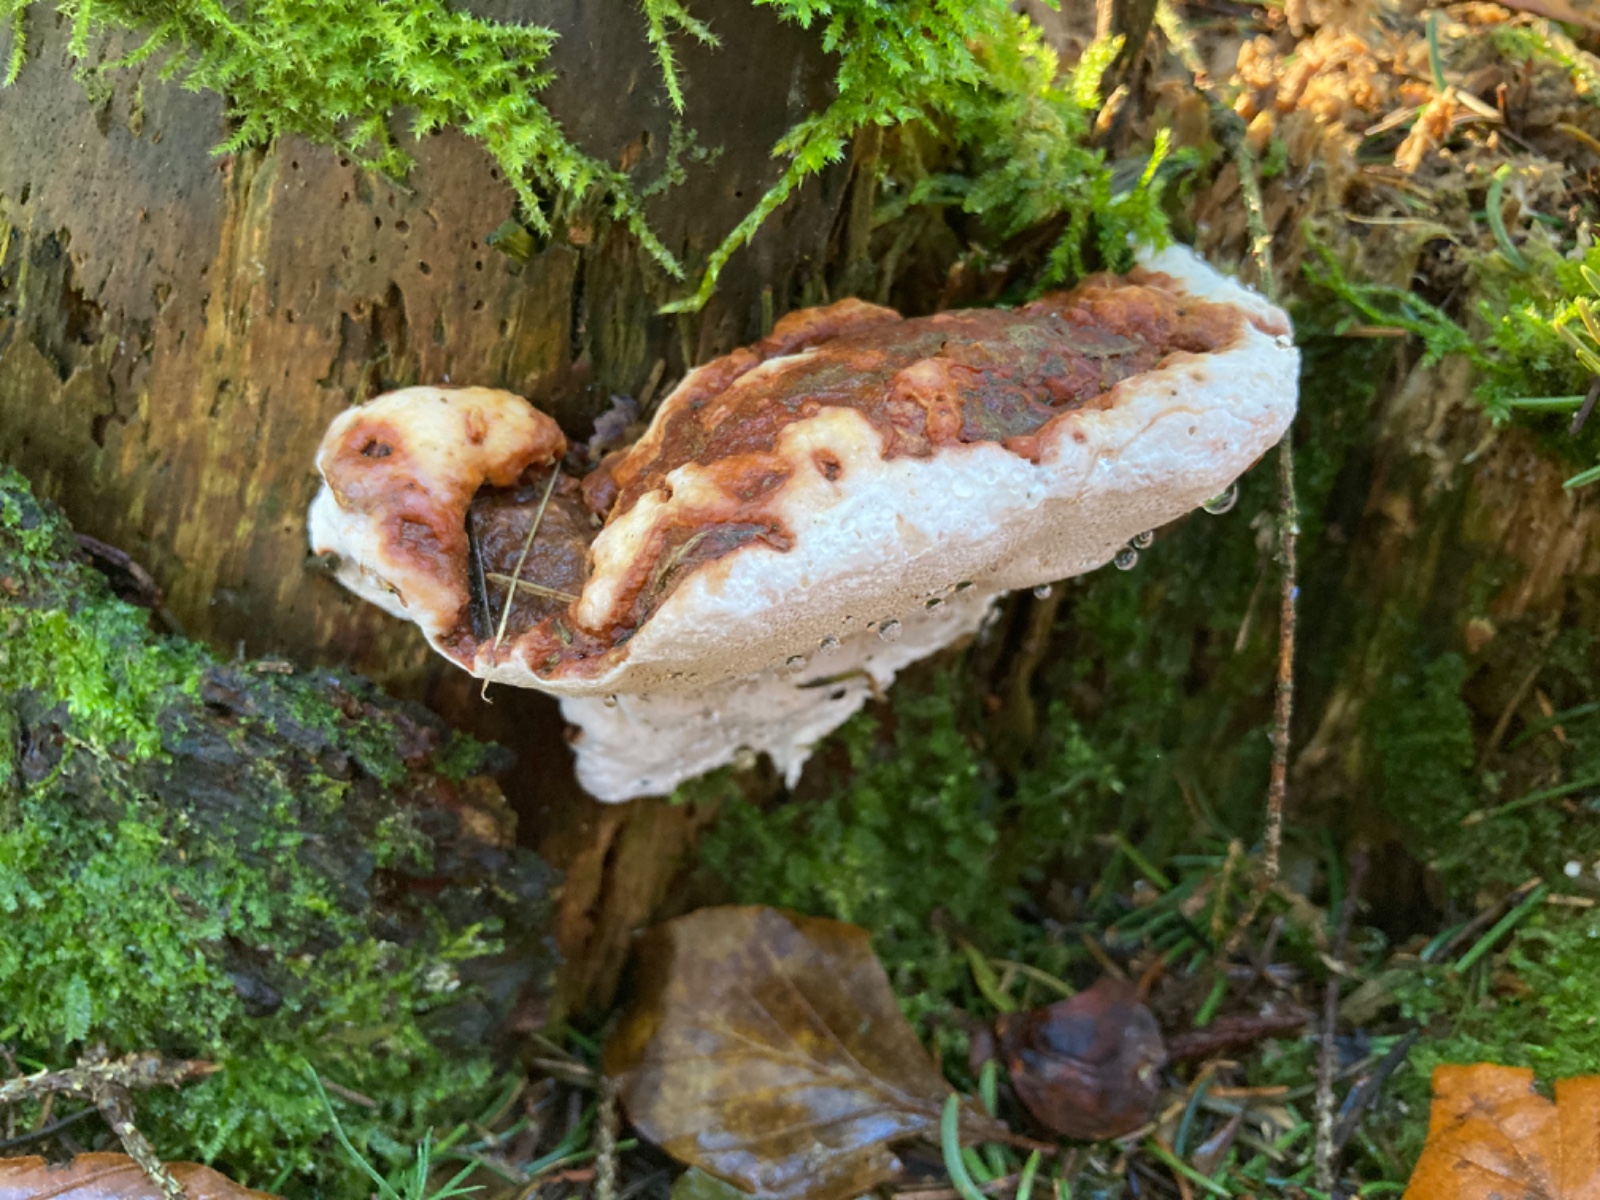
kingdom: Fungi
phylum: Basidiomycota
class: Agaricomycetes
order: Russulales
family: Bondarzewiaceae
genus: Heterobasidion
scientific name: Heterobasidion annosum
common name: almindelig rodfordærver
